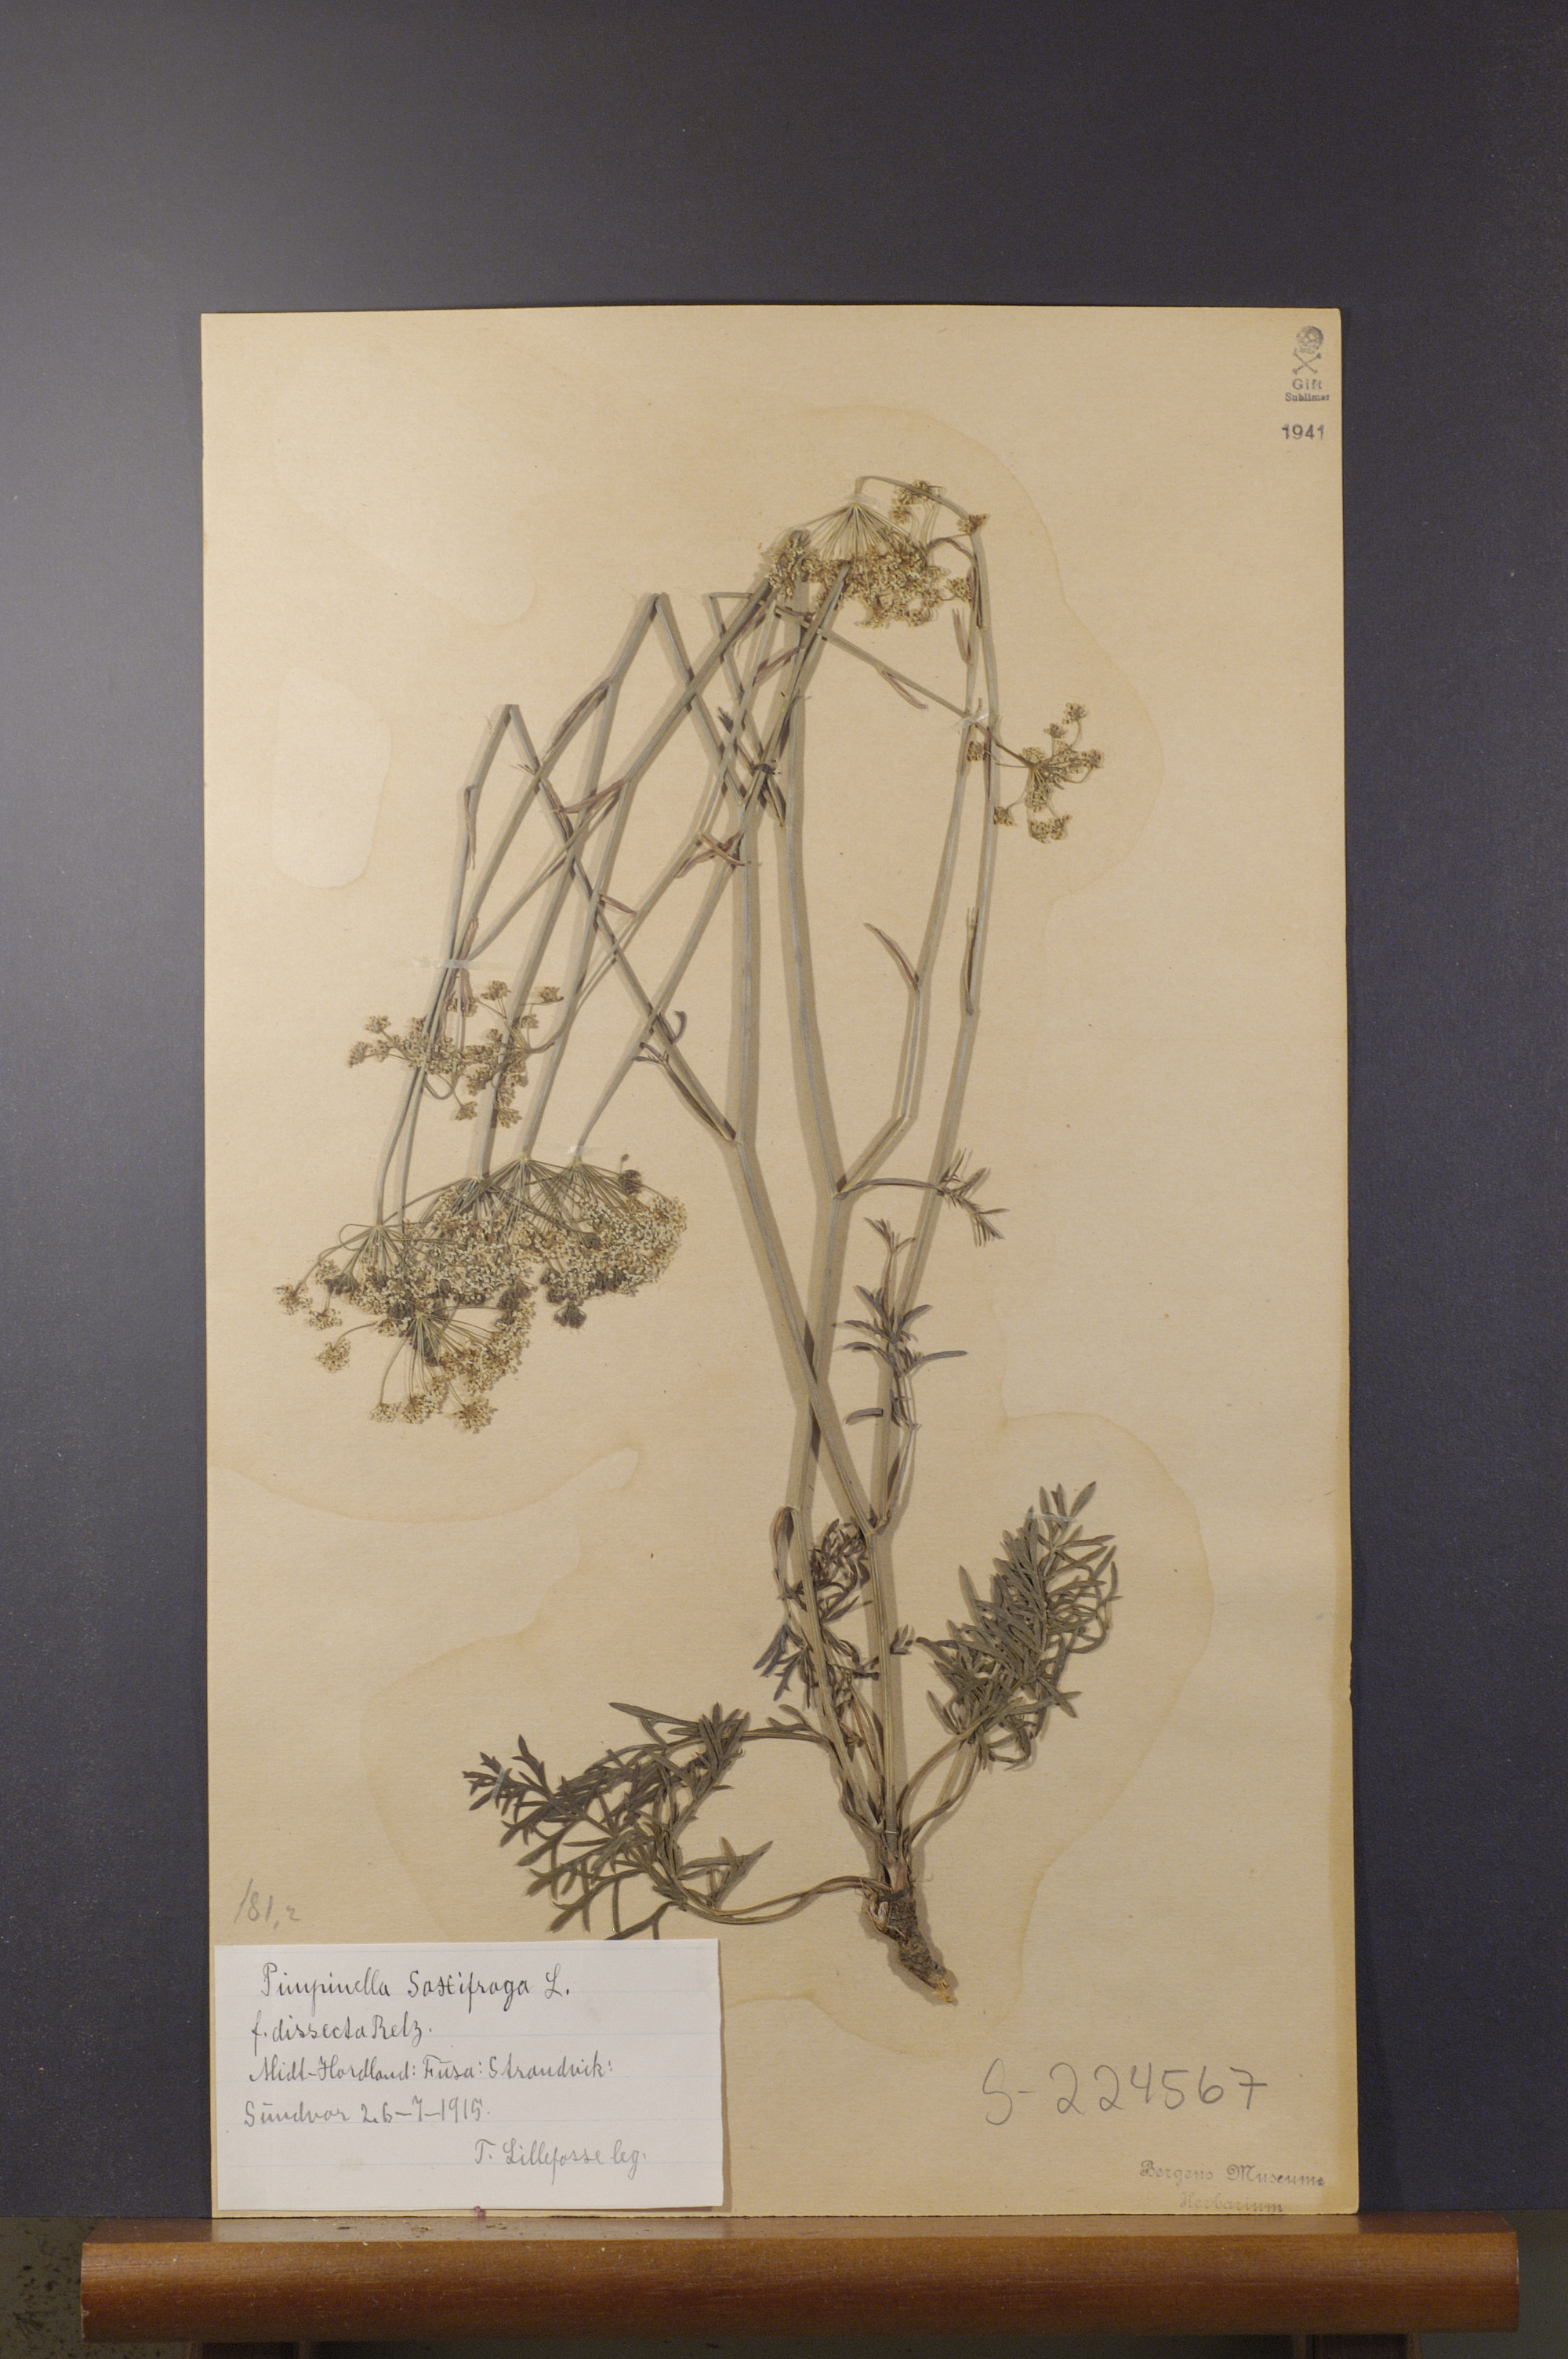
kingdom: Plantae
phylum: Tracheophyta
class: Magnoliopsida
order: Apiales
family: Apiaceae
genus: Pimpinella
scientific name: Pimpinella saxifraga
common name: Burnet-saxifrage
